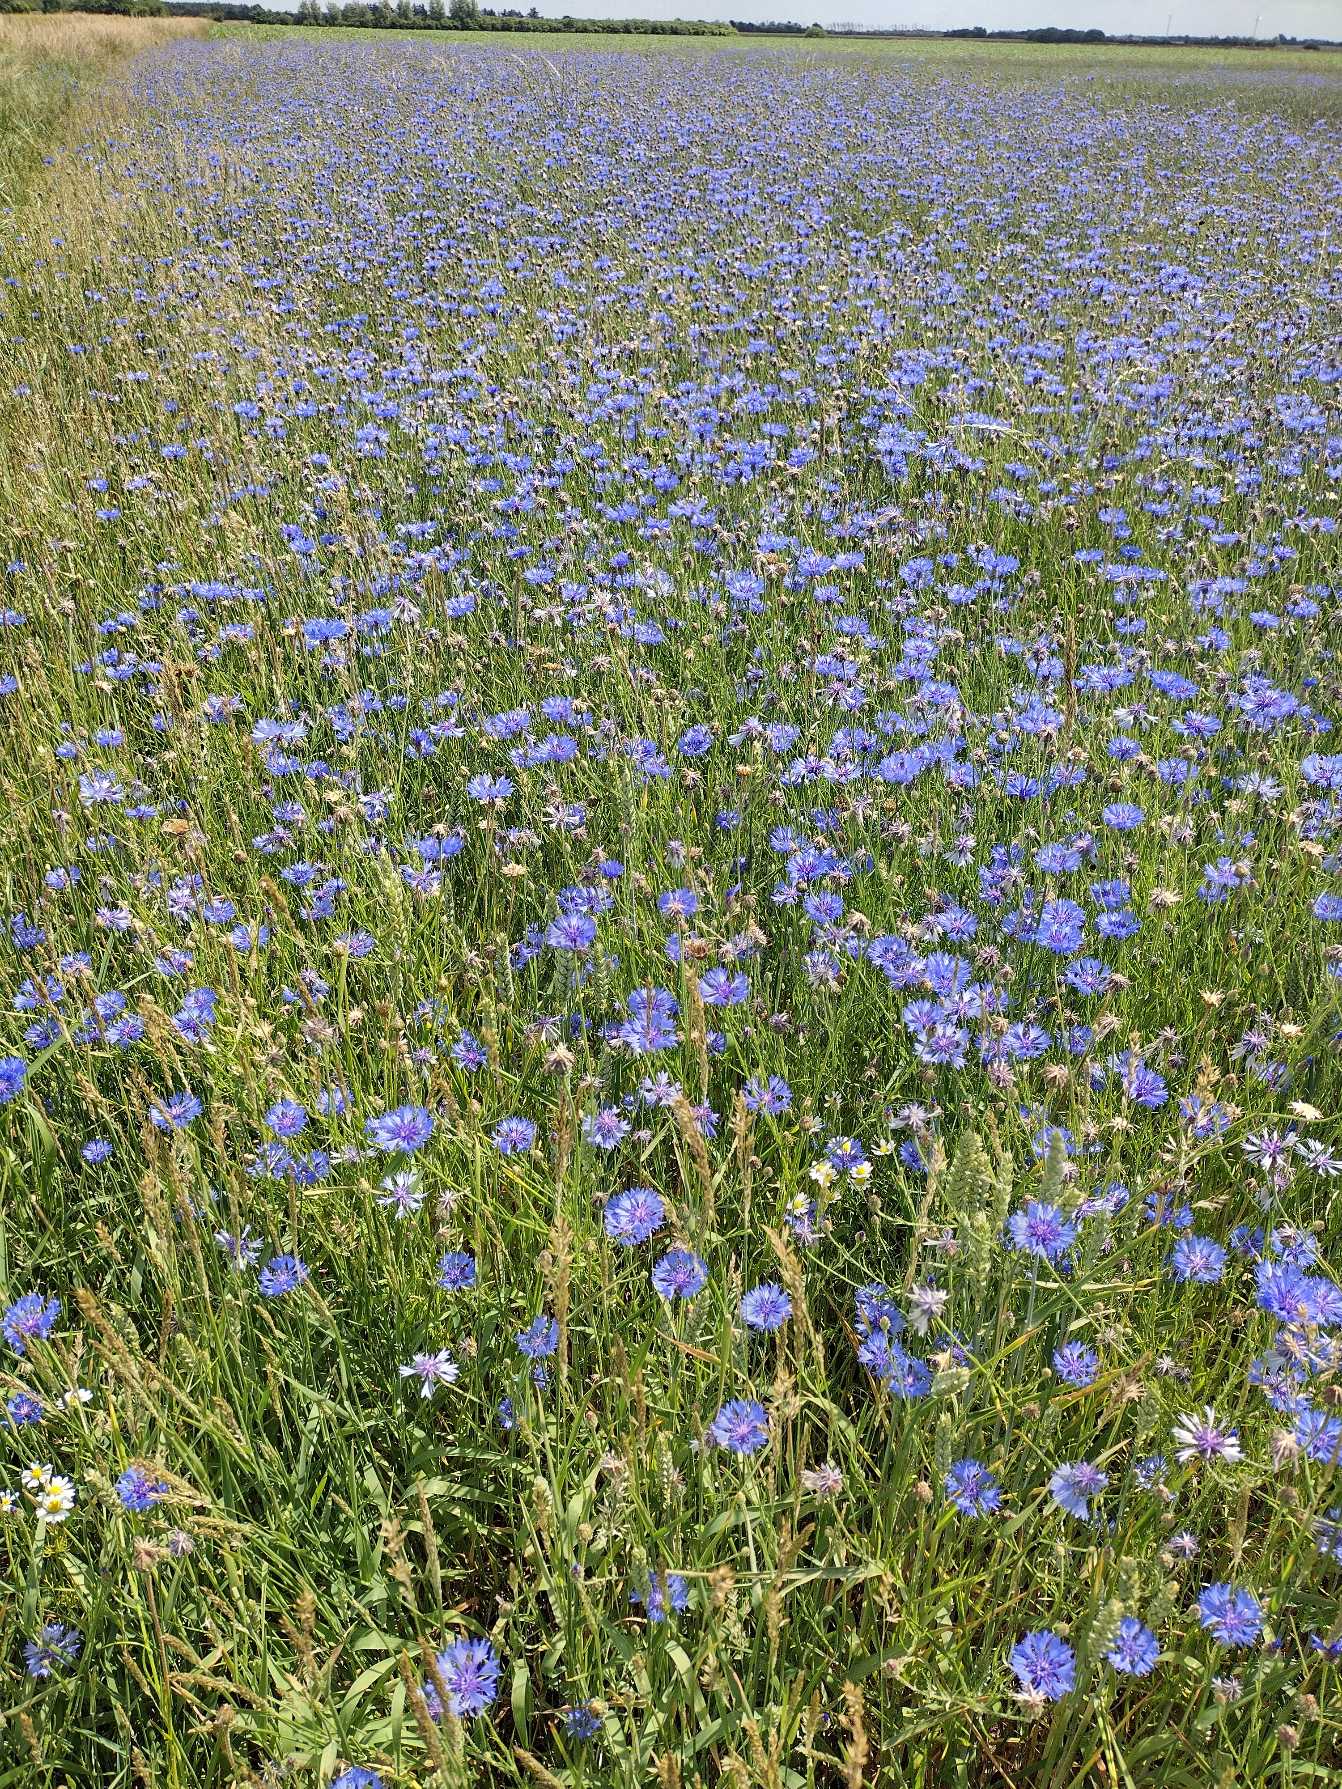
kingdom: Plantae
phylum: Tracheophyta
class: Magnoliopsida
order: Asterales
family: Asteraceae
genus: Centaurea
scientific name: Centaurea cyanus
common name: Kornblomst
